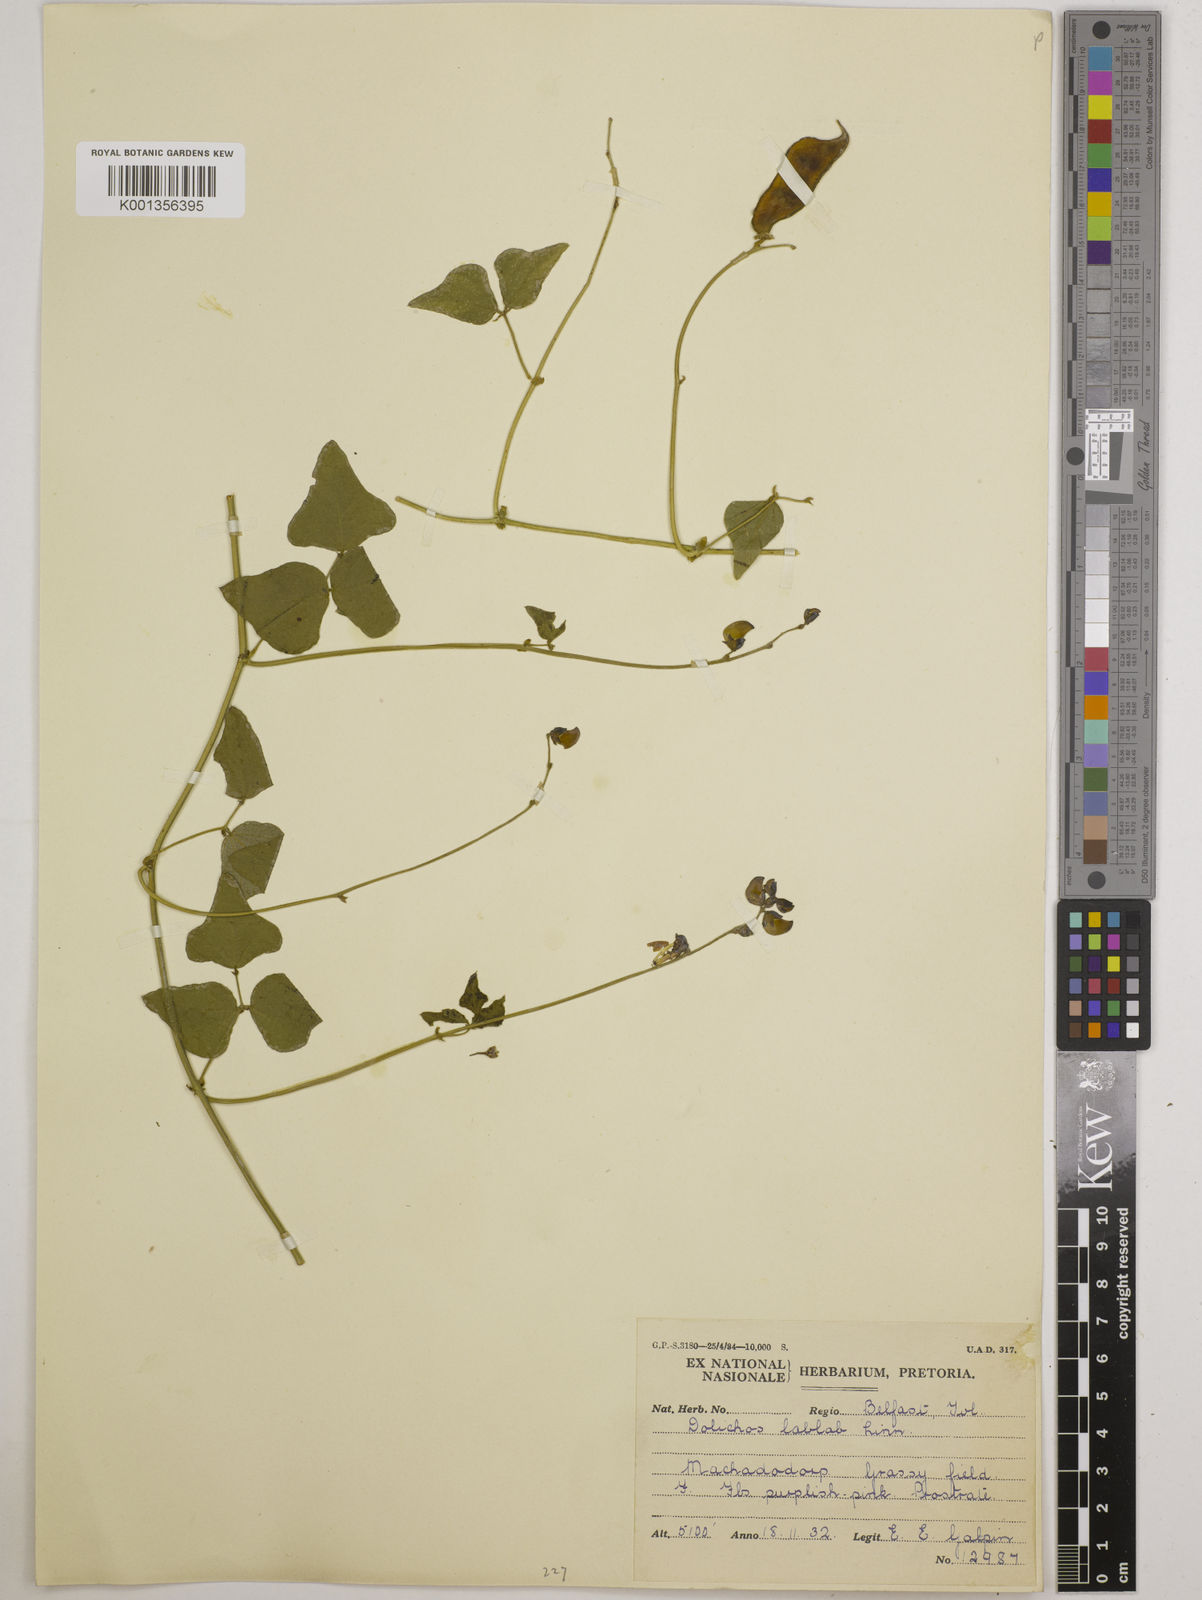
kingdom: Plantae
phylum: Tracheophyta
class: Magnoliopsida
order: Fabales
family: Fabaceae
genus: Lablab
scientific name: Lablab purpureus
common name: Lablab-bean
